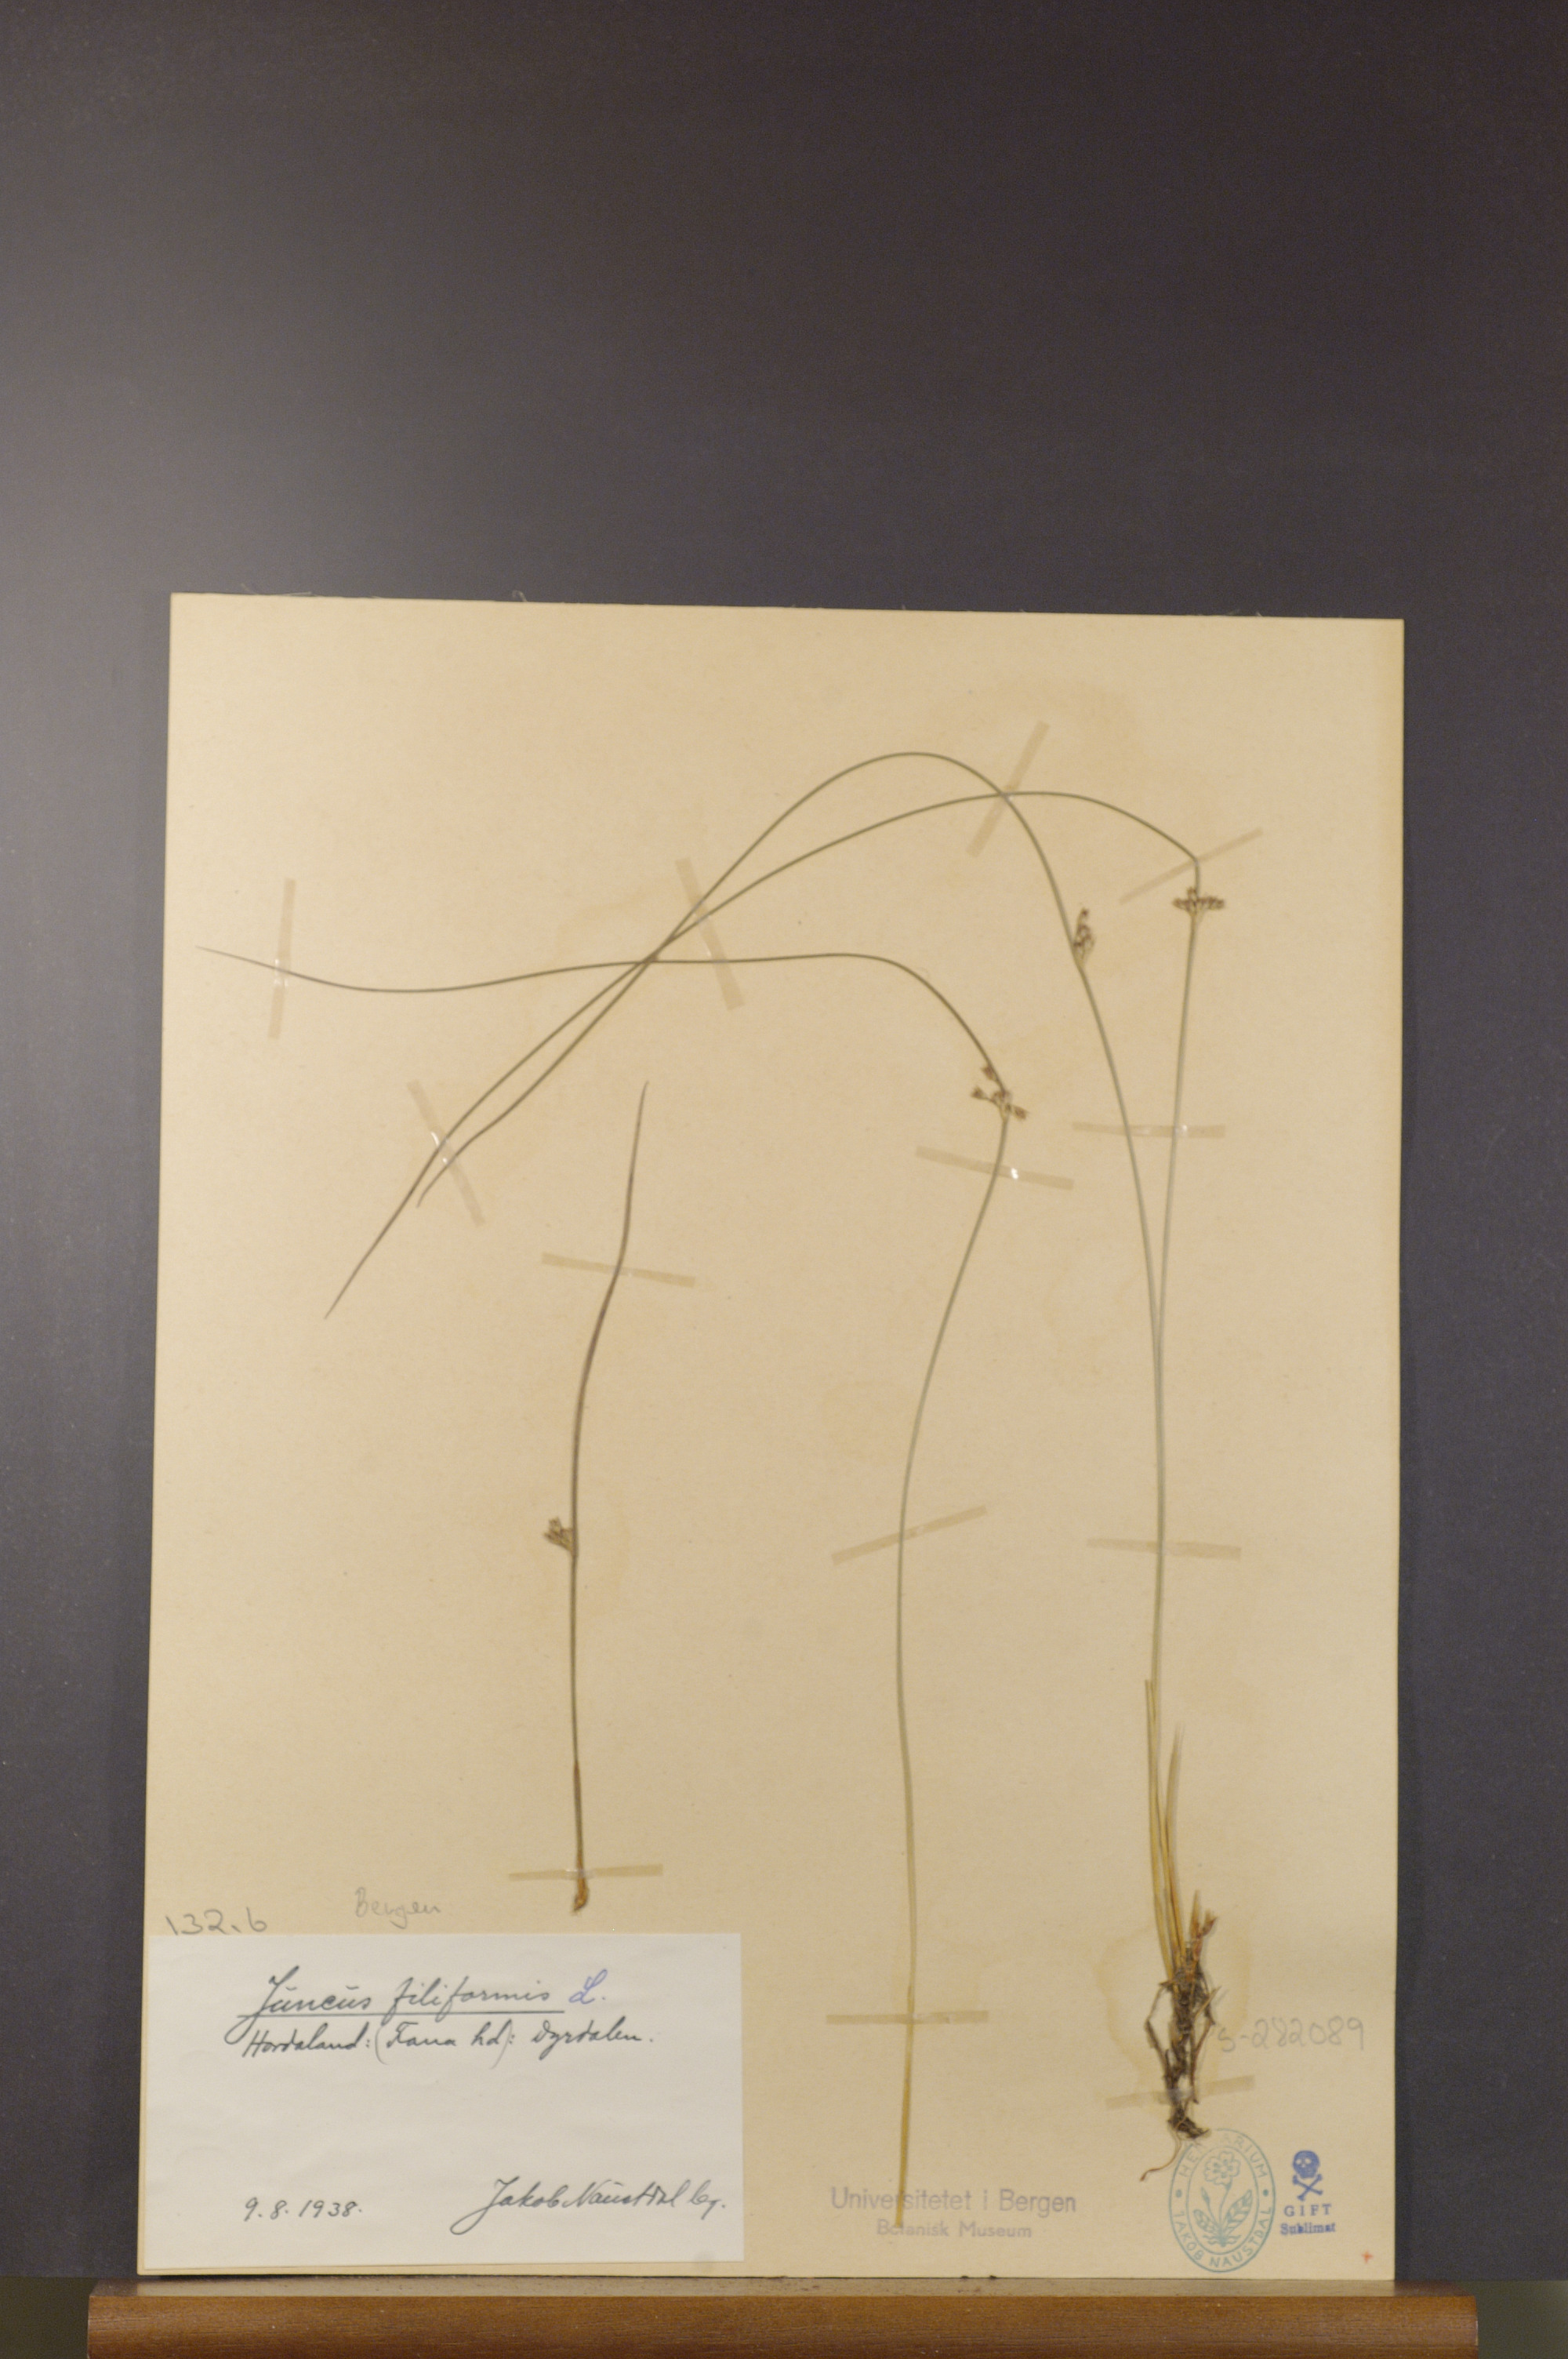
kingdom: Plantae
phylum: Tracheophyta
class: Liliopsida
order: Poales
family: Juncaceae
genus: Juncus
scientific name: Juncus filiformis
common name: Thread rush
